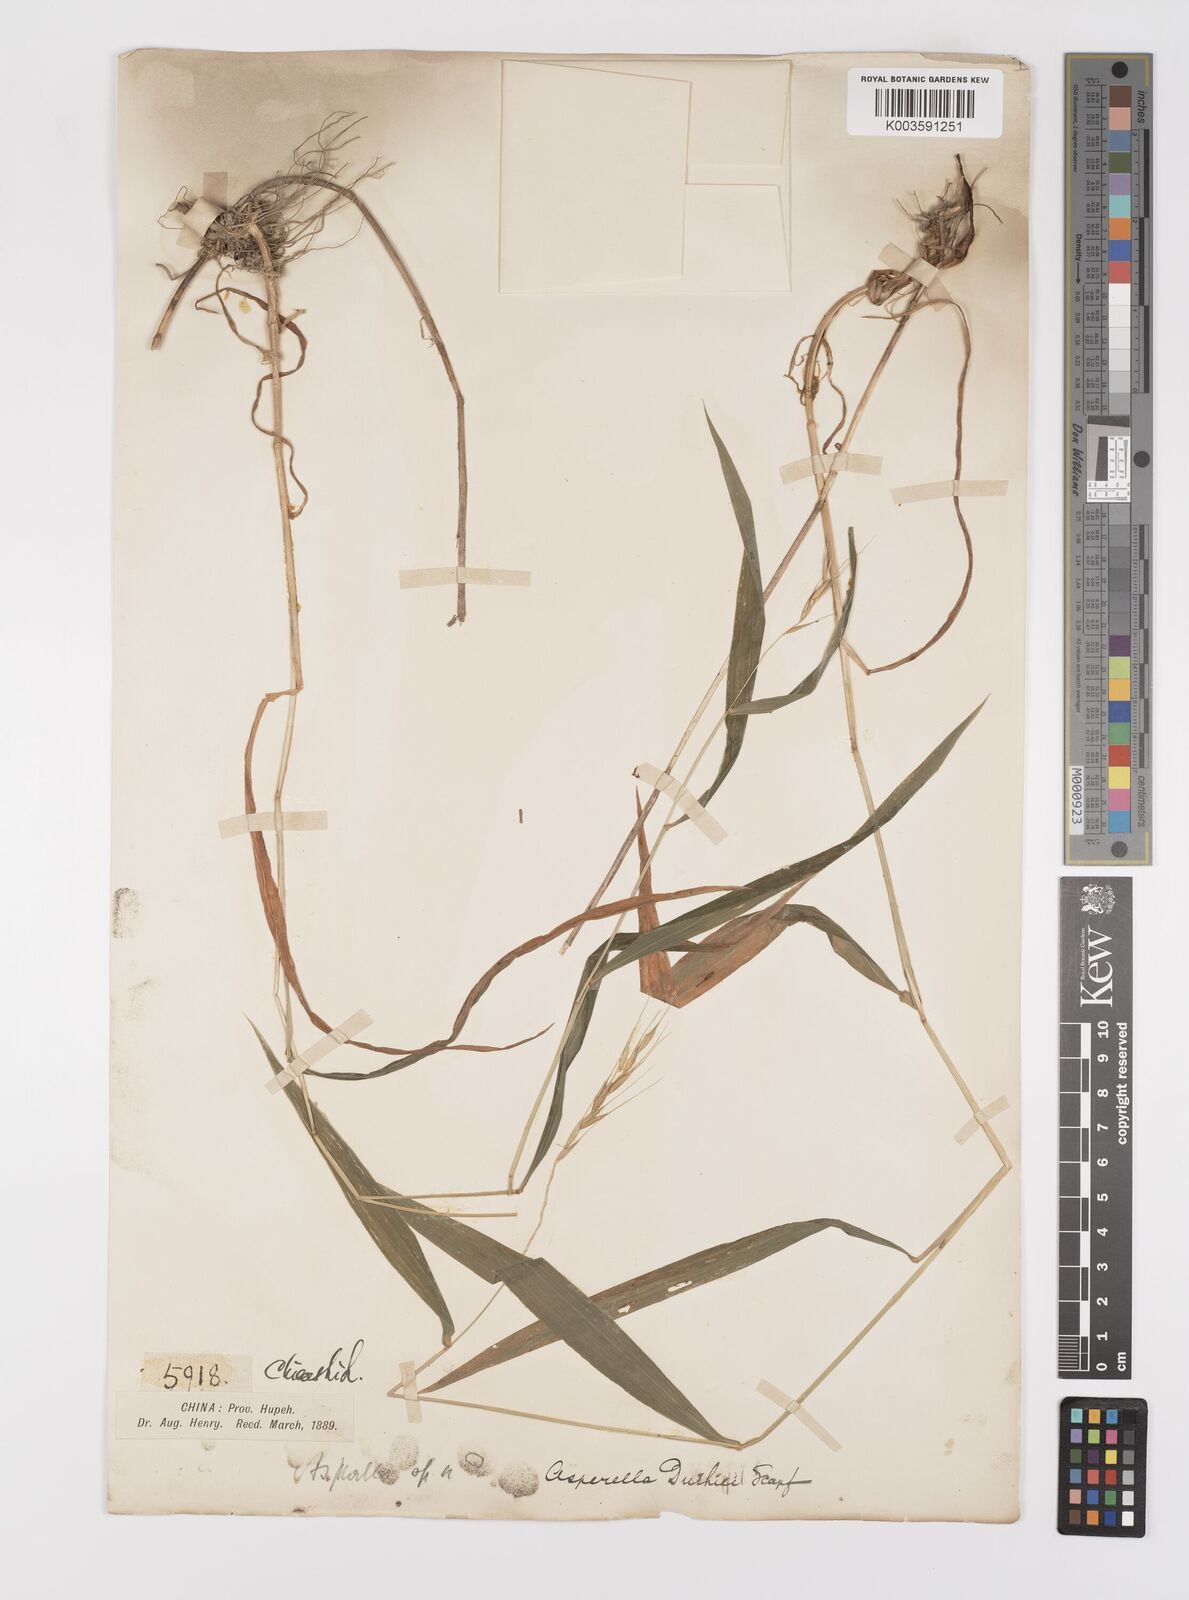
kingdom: Plantae
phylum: Tracheophyta
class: Liliopsida
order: Poales
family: Poaceae
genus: Leymus
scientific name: Leymus duthiei
